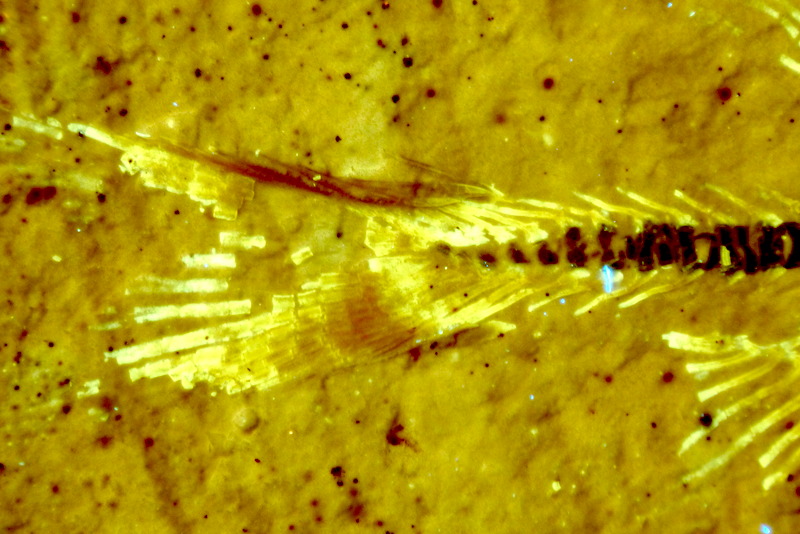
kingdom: Animalia
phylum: Chordata
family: Ascalaboidae
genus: Ebertichthys
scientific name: Ebertichthys ettlingensis
